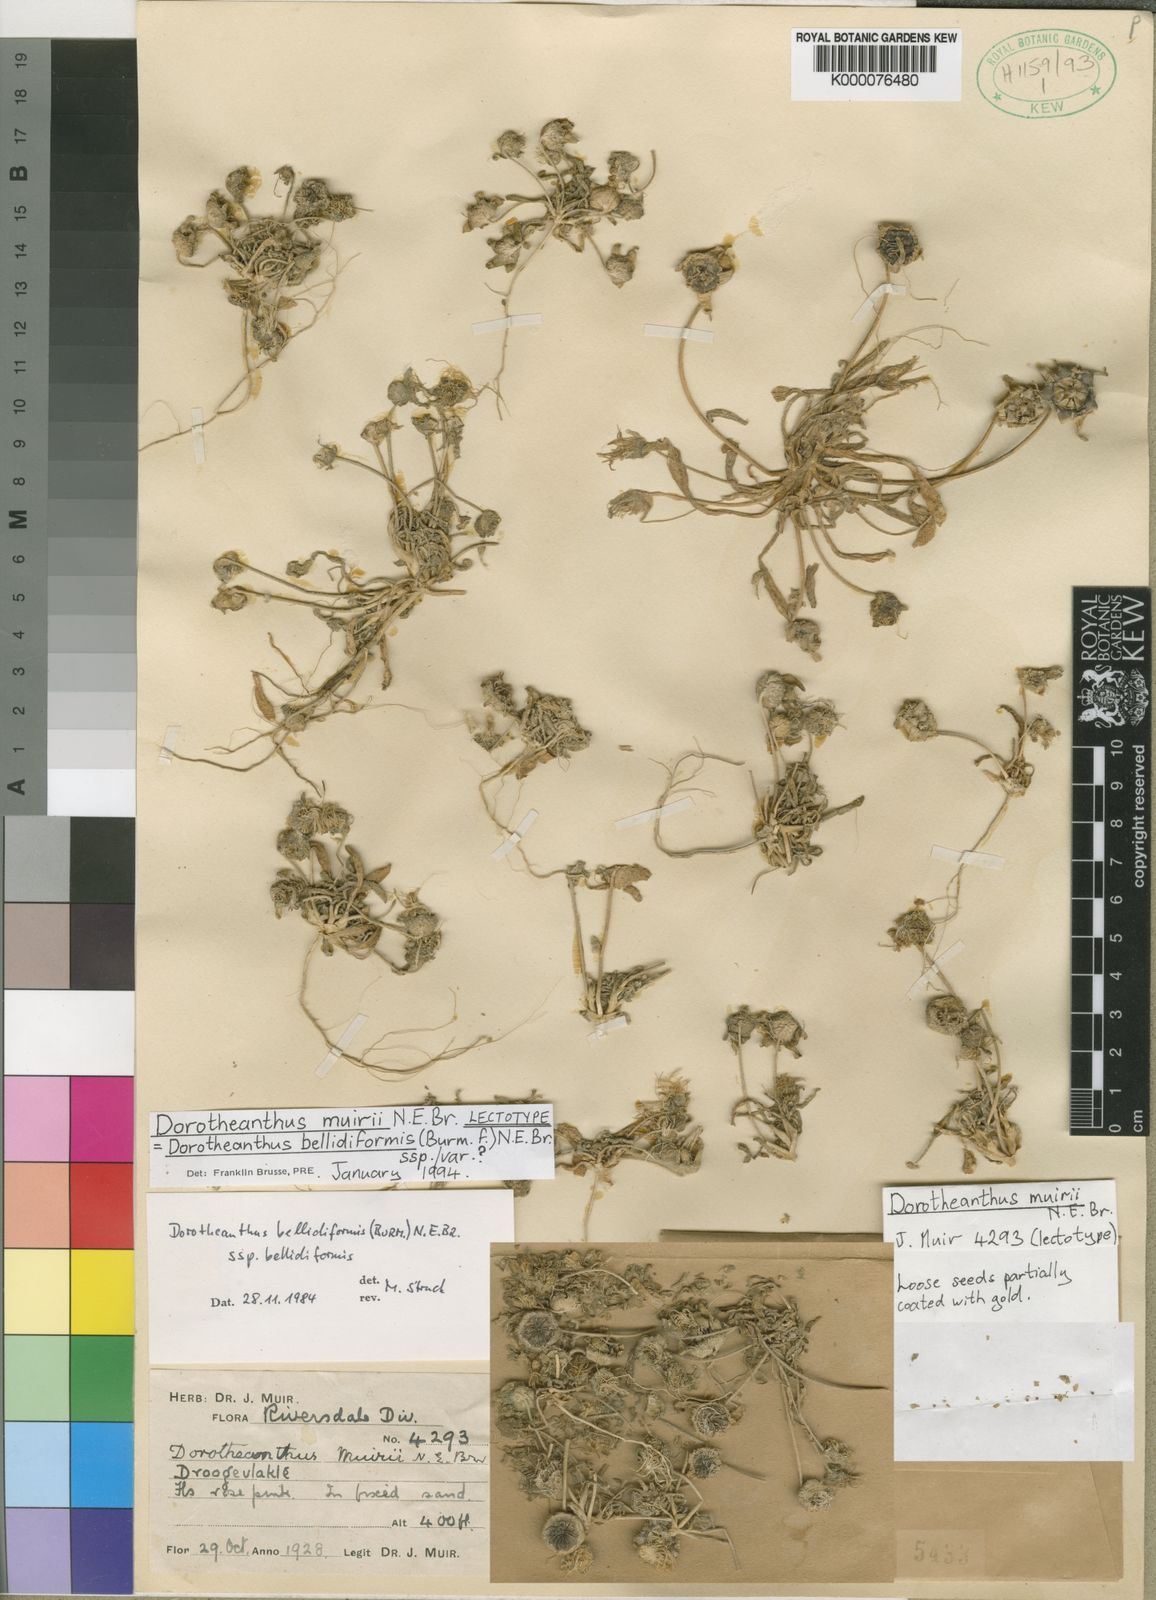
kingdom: Plantae
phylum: Tracheophyta
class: Magnoliopsida
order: Caryophyllales
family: Aizoaceae
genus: Cleretum
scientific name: Cleretum bellidiforme
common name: Livingstone daisy
